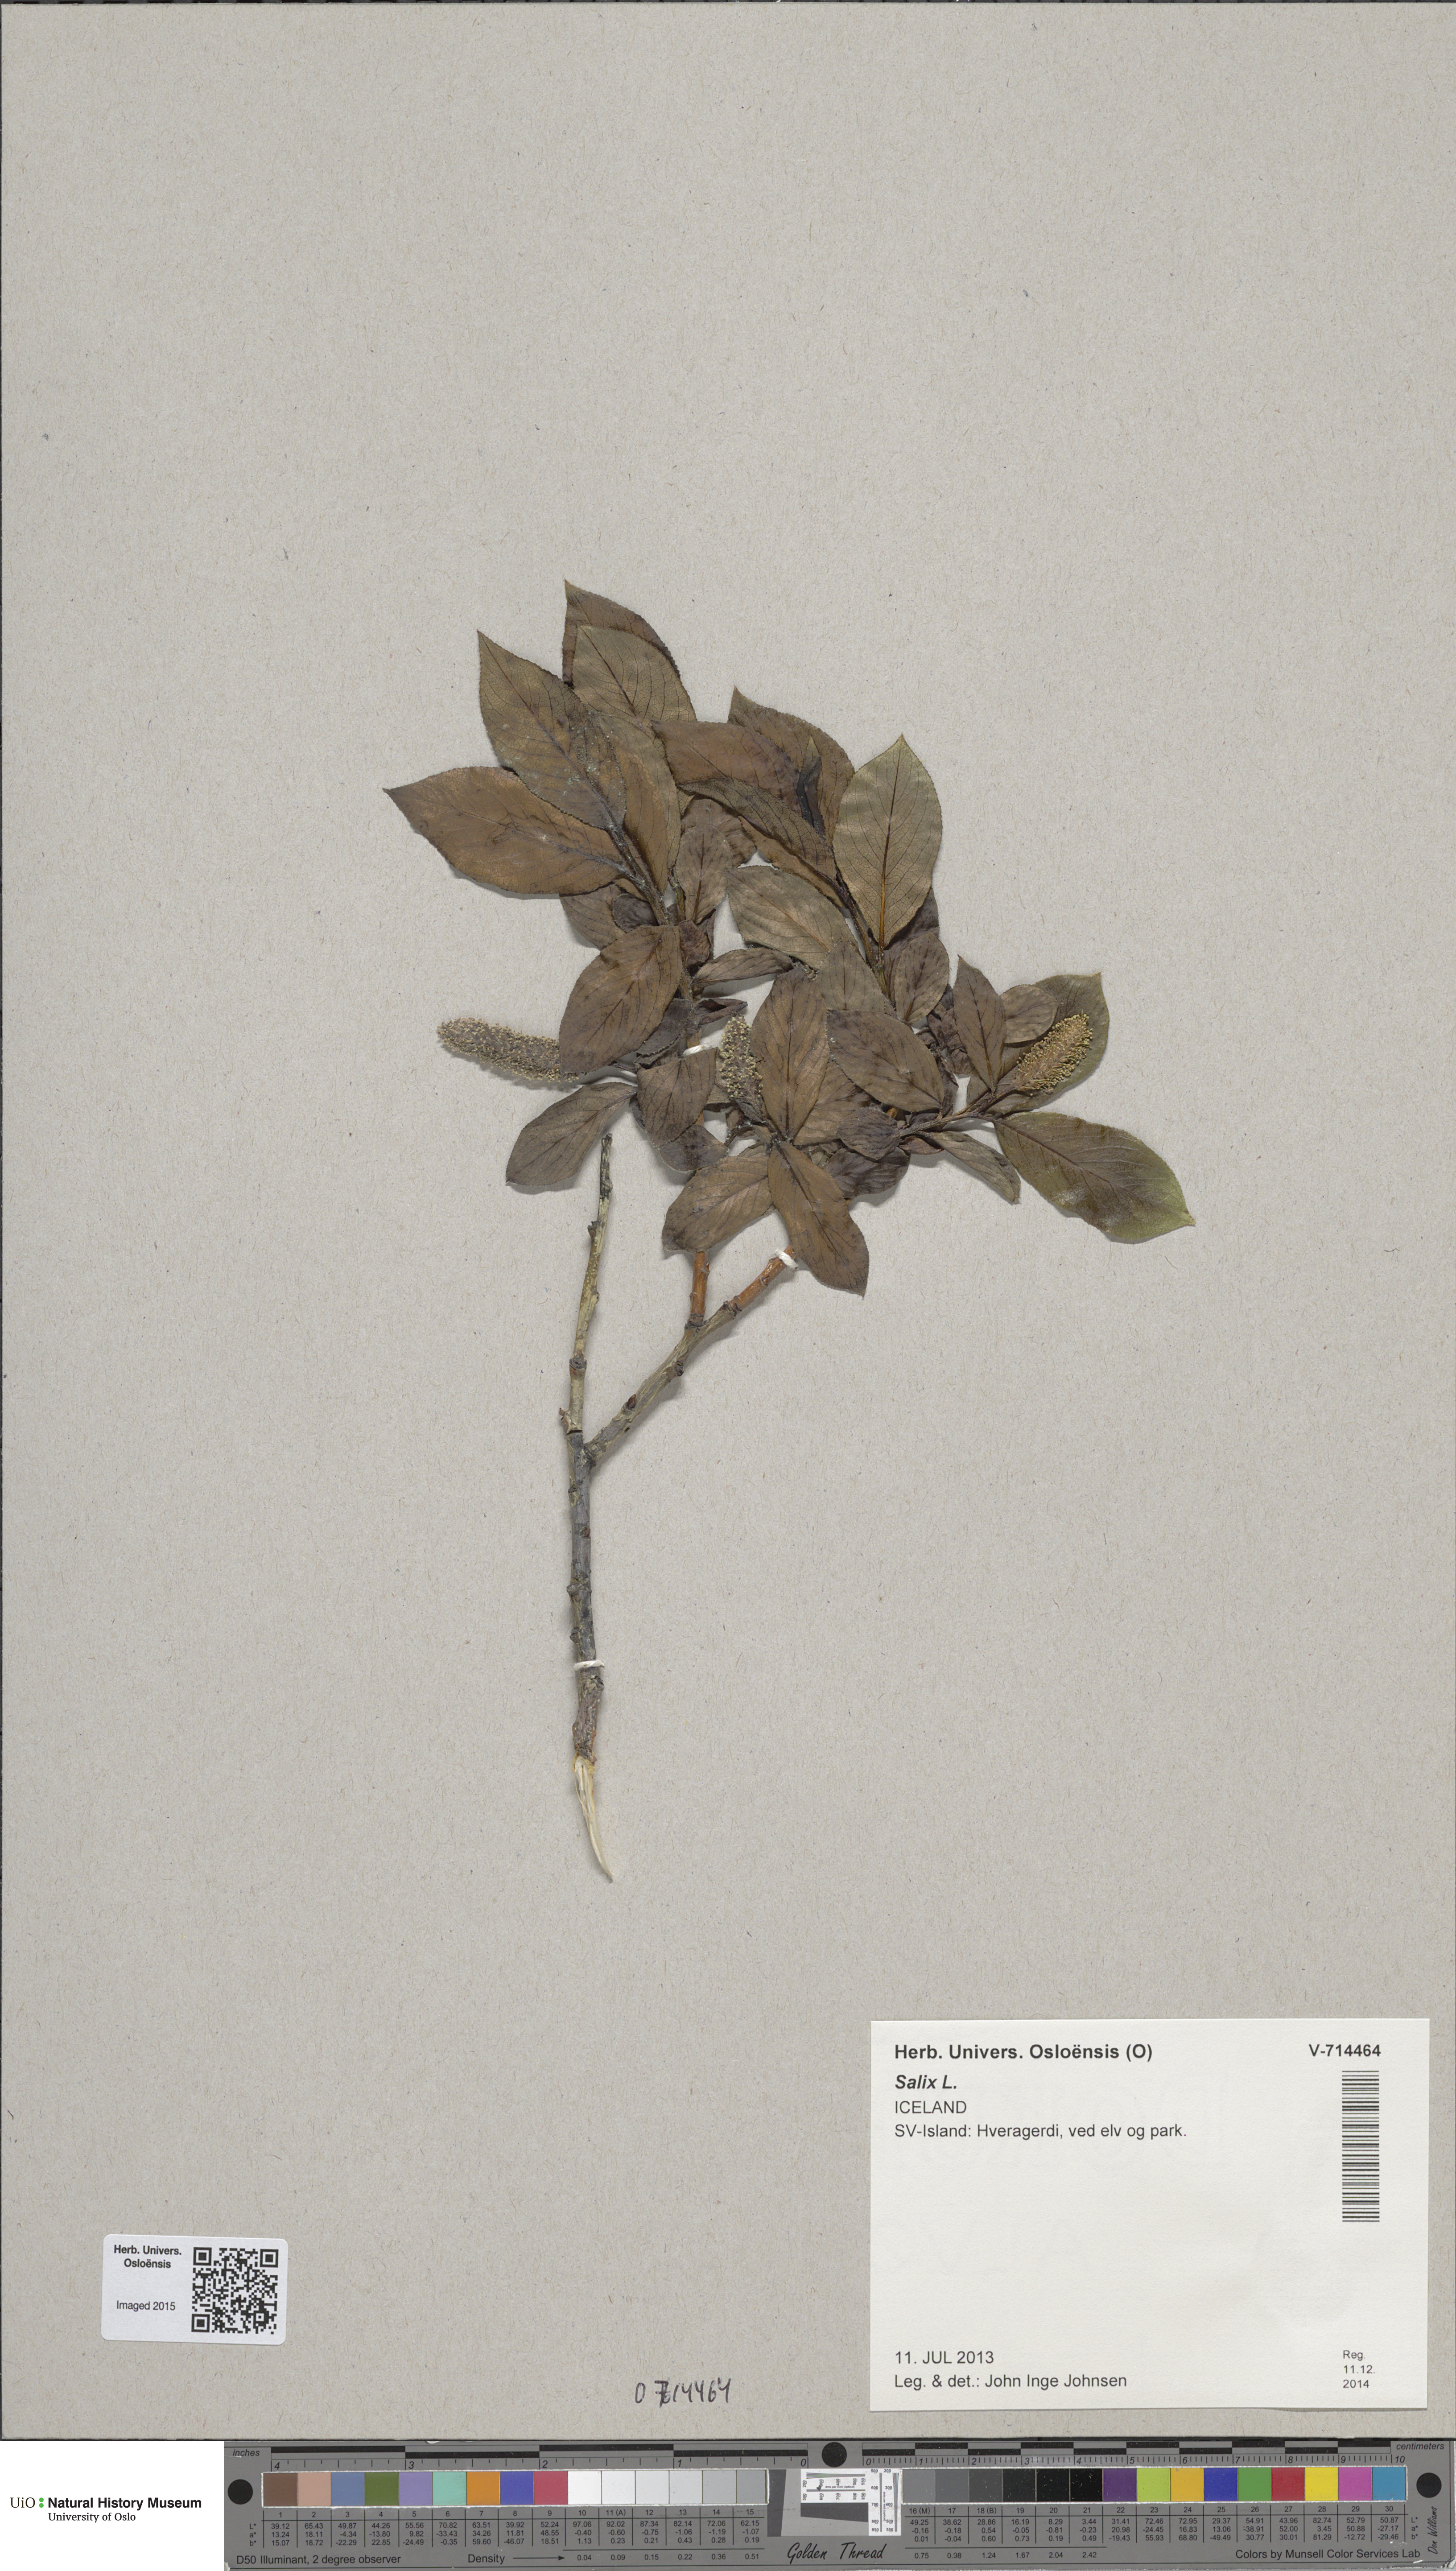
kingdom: Plantae
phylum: Tracheophyta
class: Magnoliopsida
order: Malpighiales
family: Salicaceae
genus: Salix
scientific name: Salix pentandra
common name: Bay willow
